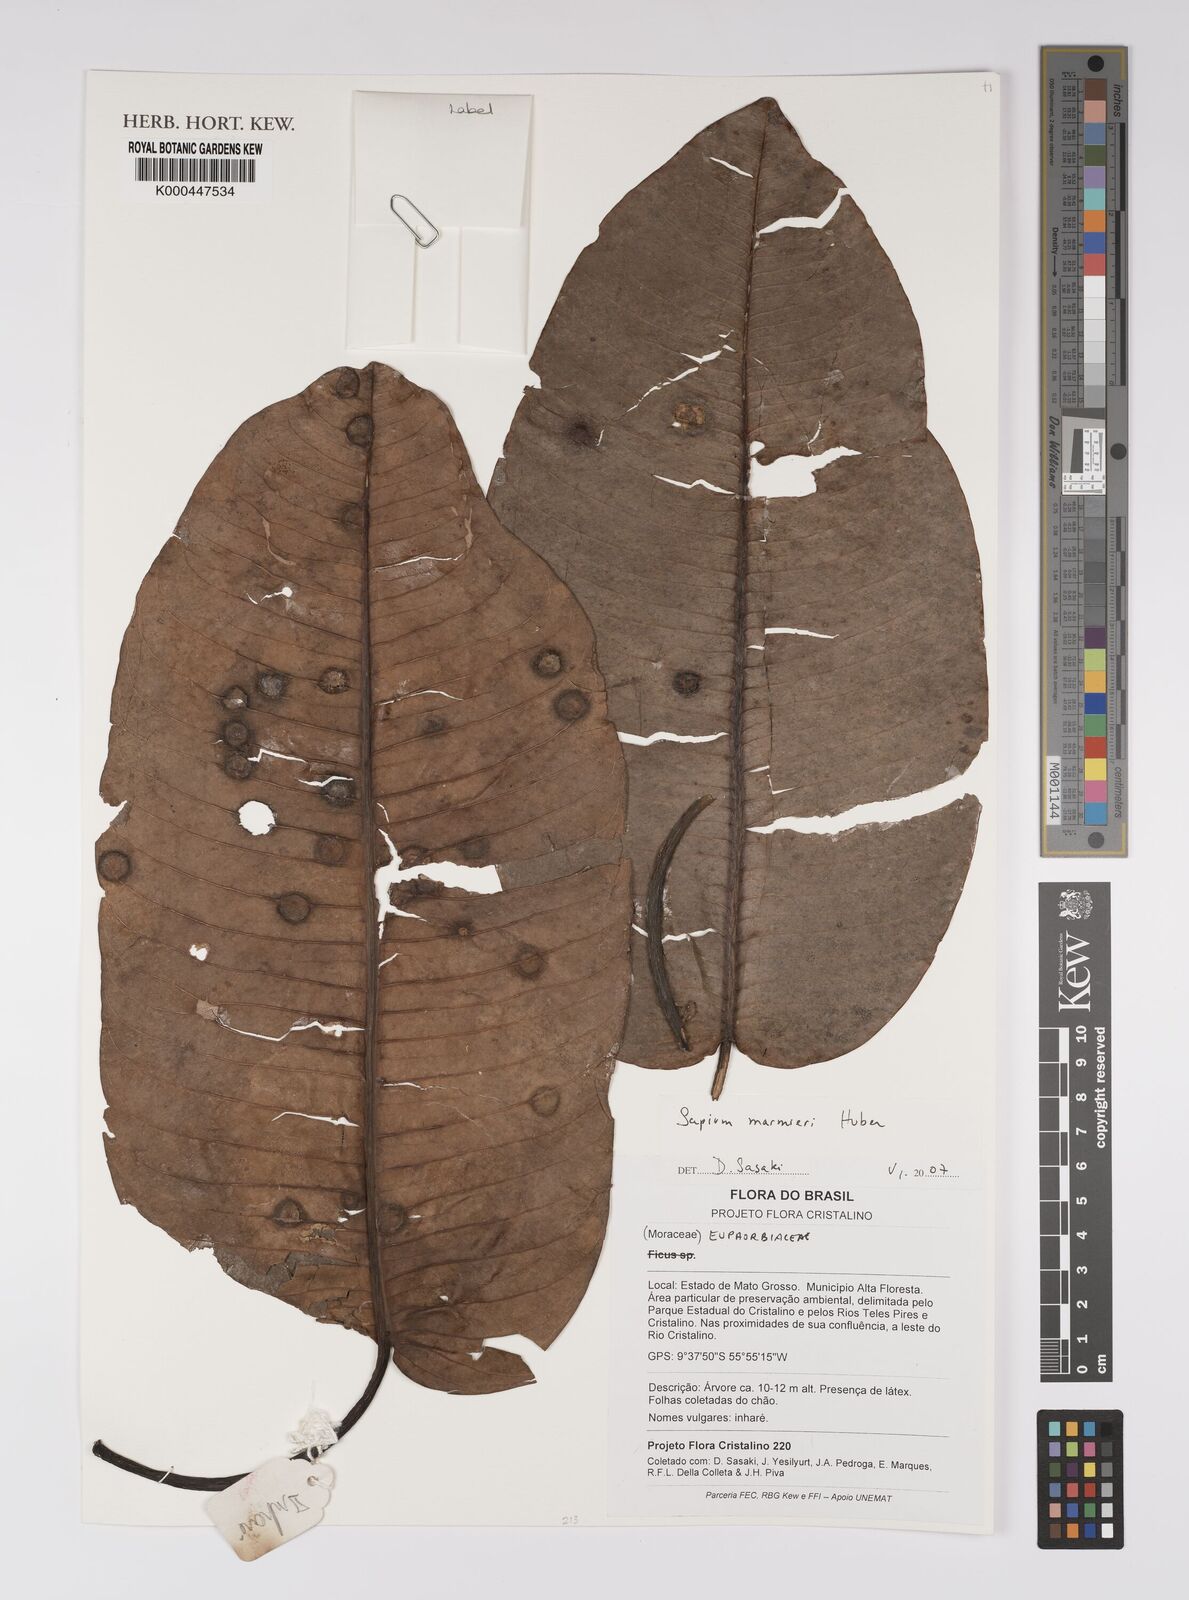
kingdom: Plantae
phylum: Tracheophyta
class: Magnoliopsida
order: Malpighiales
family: Euphorbiaceae
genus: Sapium
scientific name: Sapium marmieri
